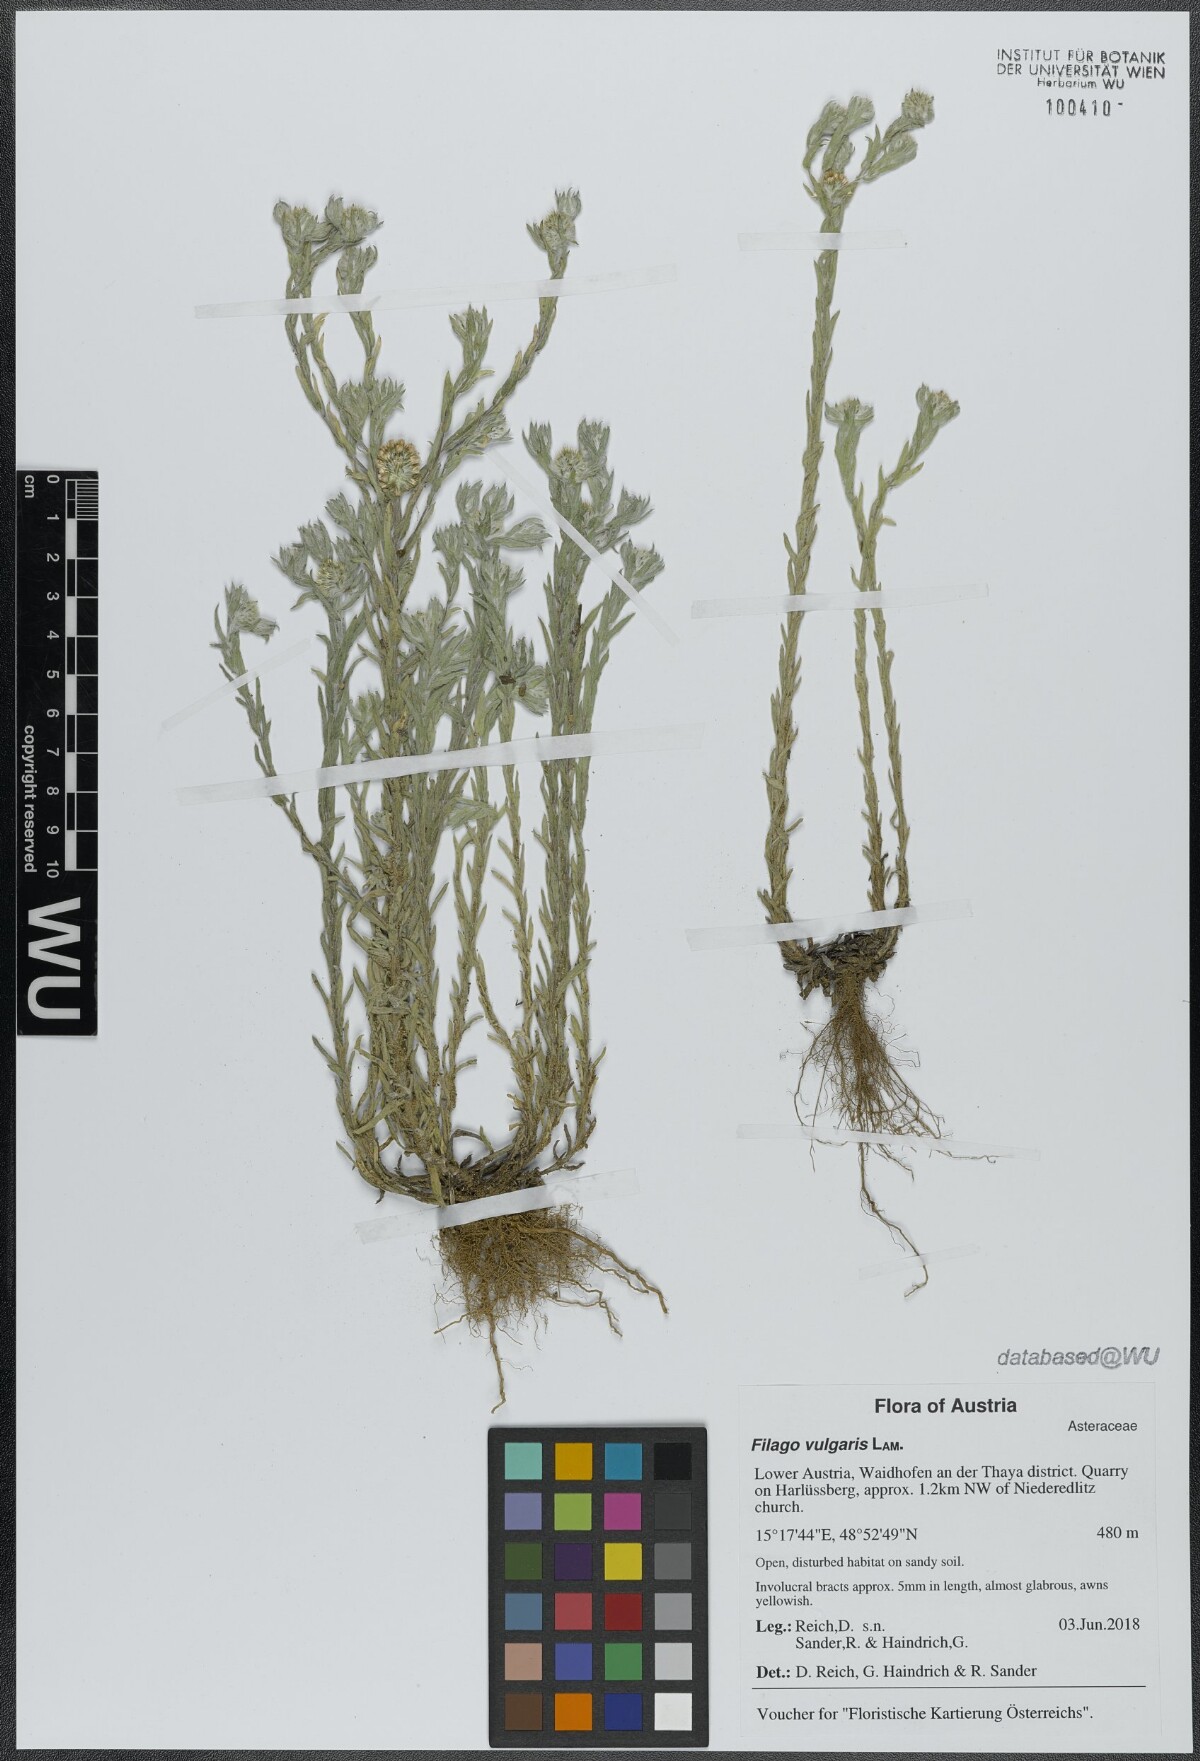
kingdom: Plantae
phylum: Tracheophyta
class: Magnoliopsida
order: Asterales
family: Asteraceae
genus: Filago
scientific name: Filago germanica
